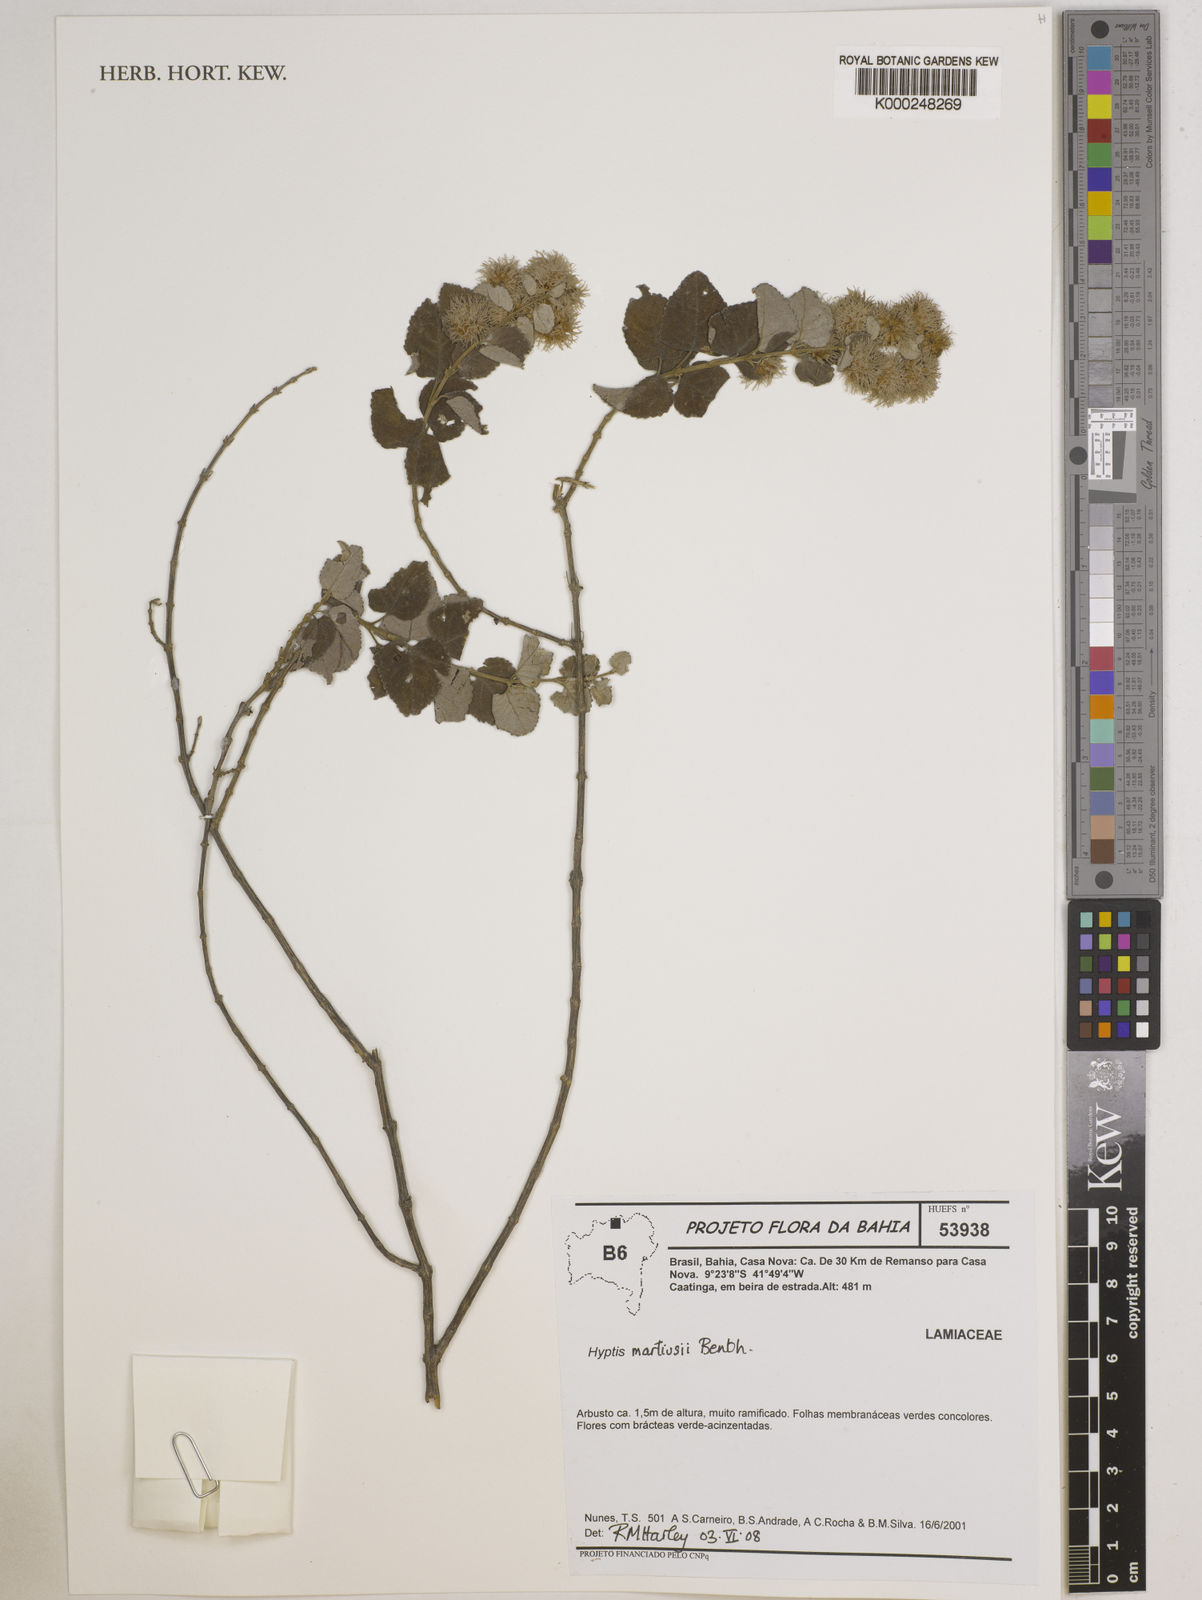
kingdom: Plantae
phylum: Tracheophyta
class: Magnoliopsida
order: Lamiales
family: Lamiaceae
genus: Medusantha
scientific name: Medusantha martiusii
